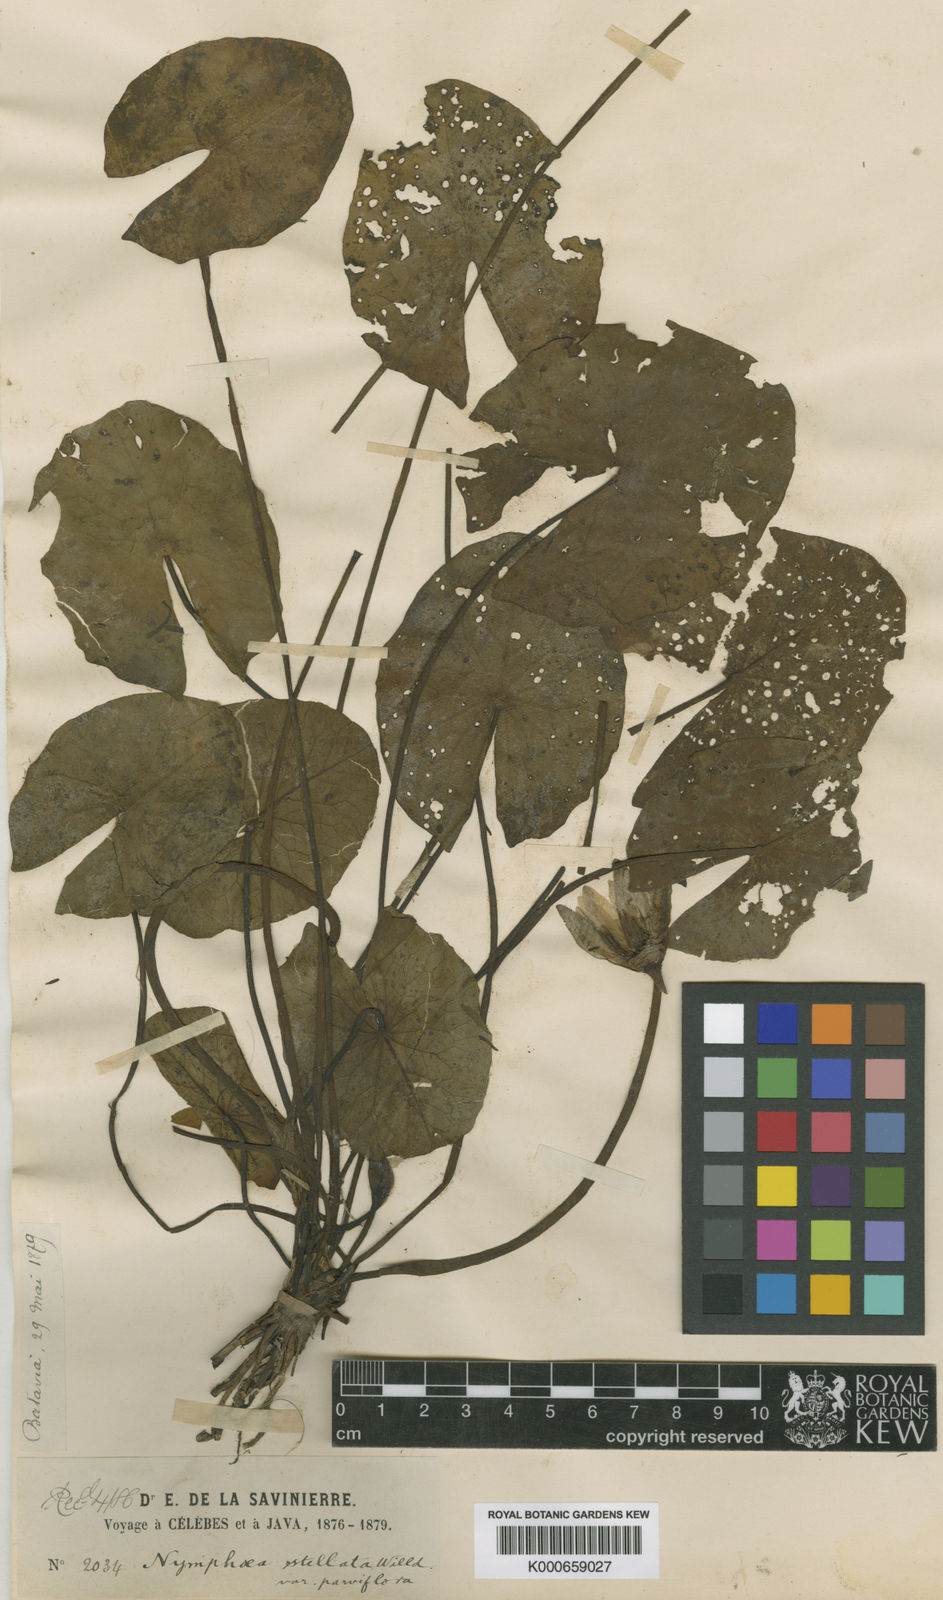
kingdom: Plantae
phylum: Tracheophyta
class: Magnoliopsida
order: Nymphaeales
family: Nymphaeaceae
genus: Nymphaea
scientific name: Nymphaea nouchali
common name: Blue lotus
